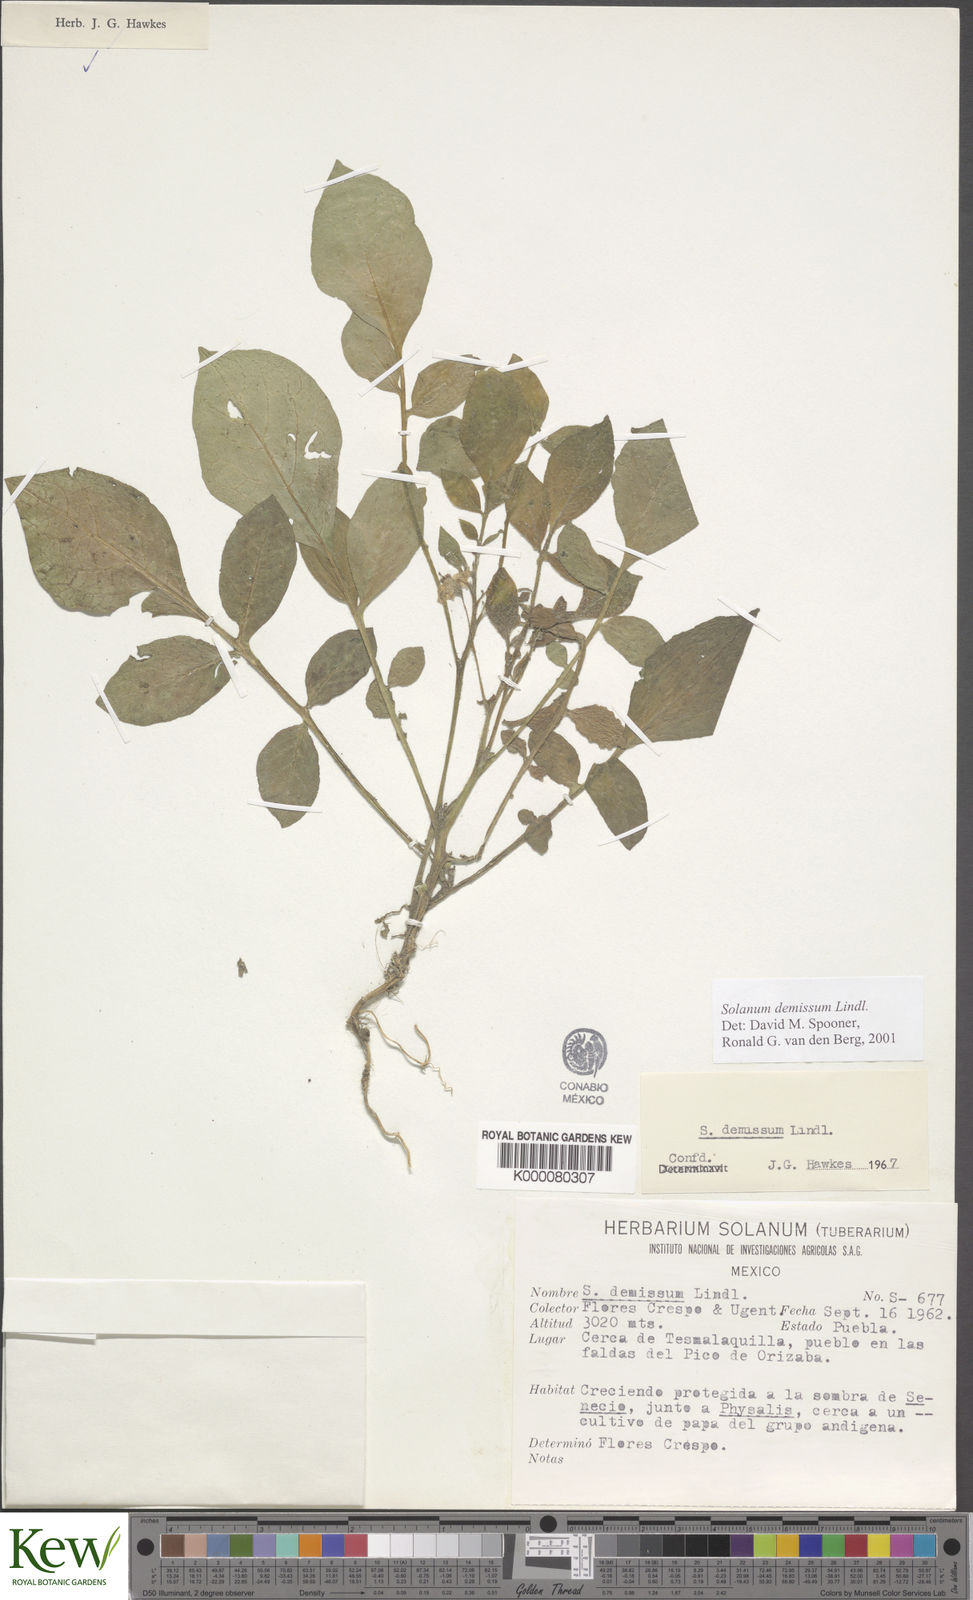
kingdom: Plantae
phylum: Tracheophyta
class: Magnoliopsida
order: Solanales
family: Solanaceae
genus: Solanum
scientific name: Solanum demissum
